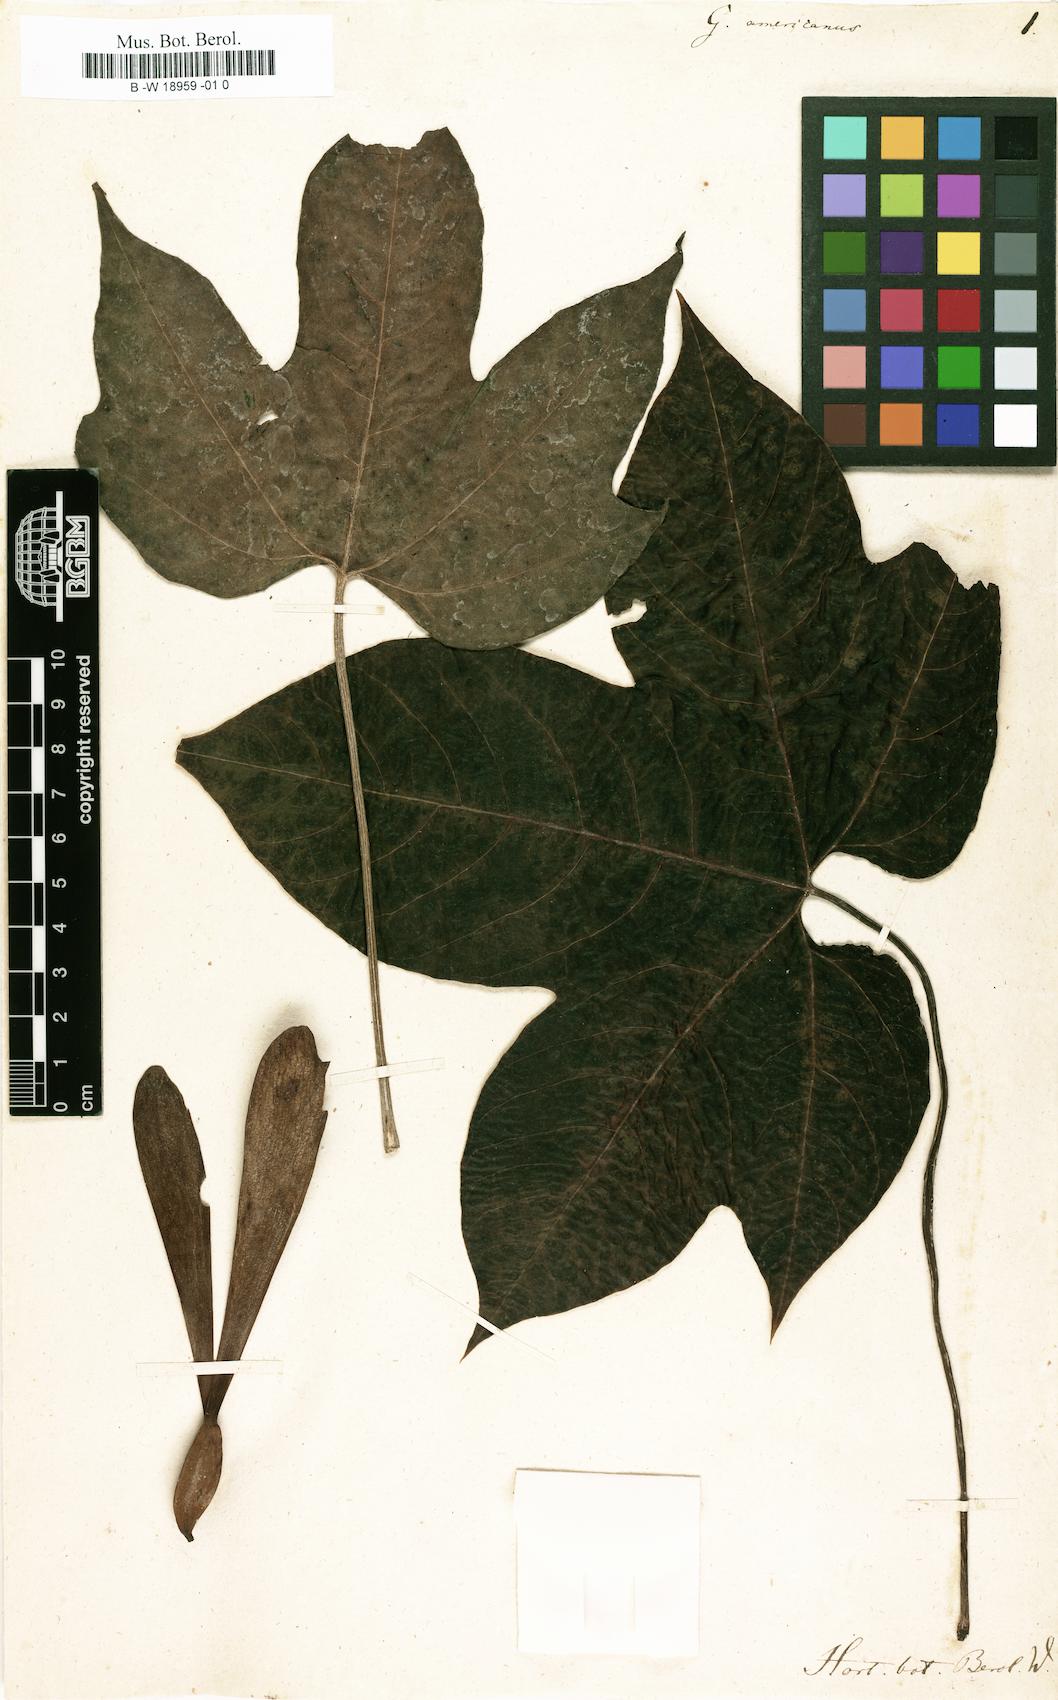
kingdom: Plantae
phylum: Tracheophyta
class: Magnoliopsida
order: Laurales
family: Hernandiaceae
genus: Gyrocarpus
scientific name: Gyrocarpus americanus
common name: Gyro damson
